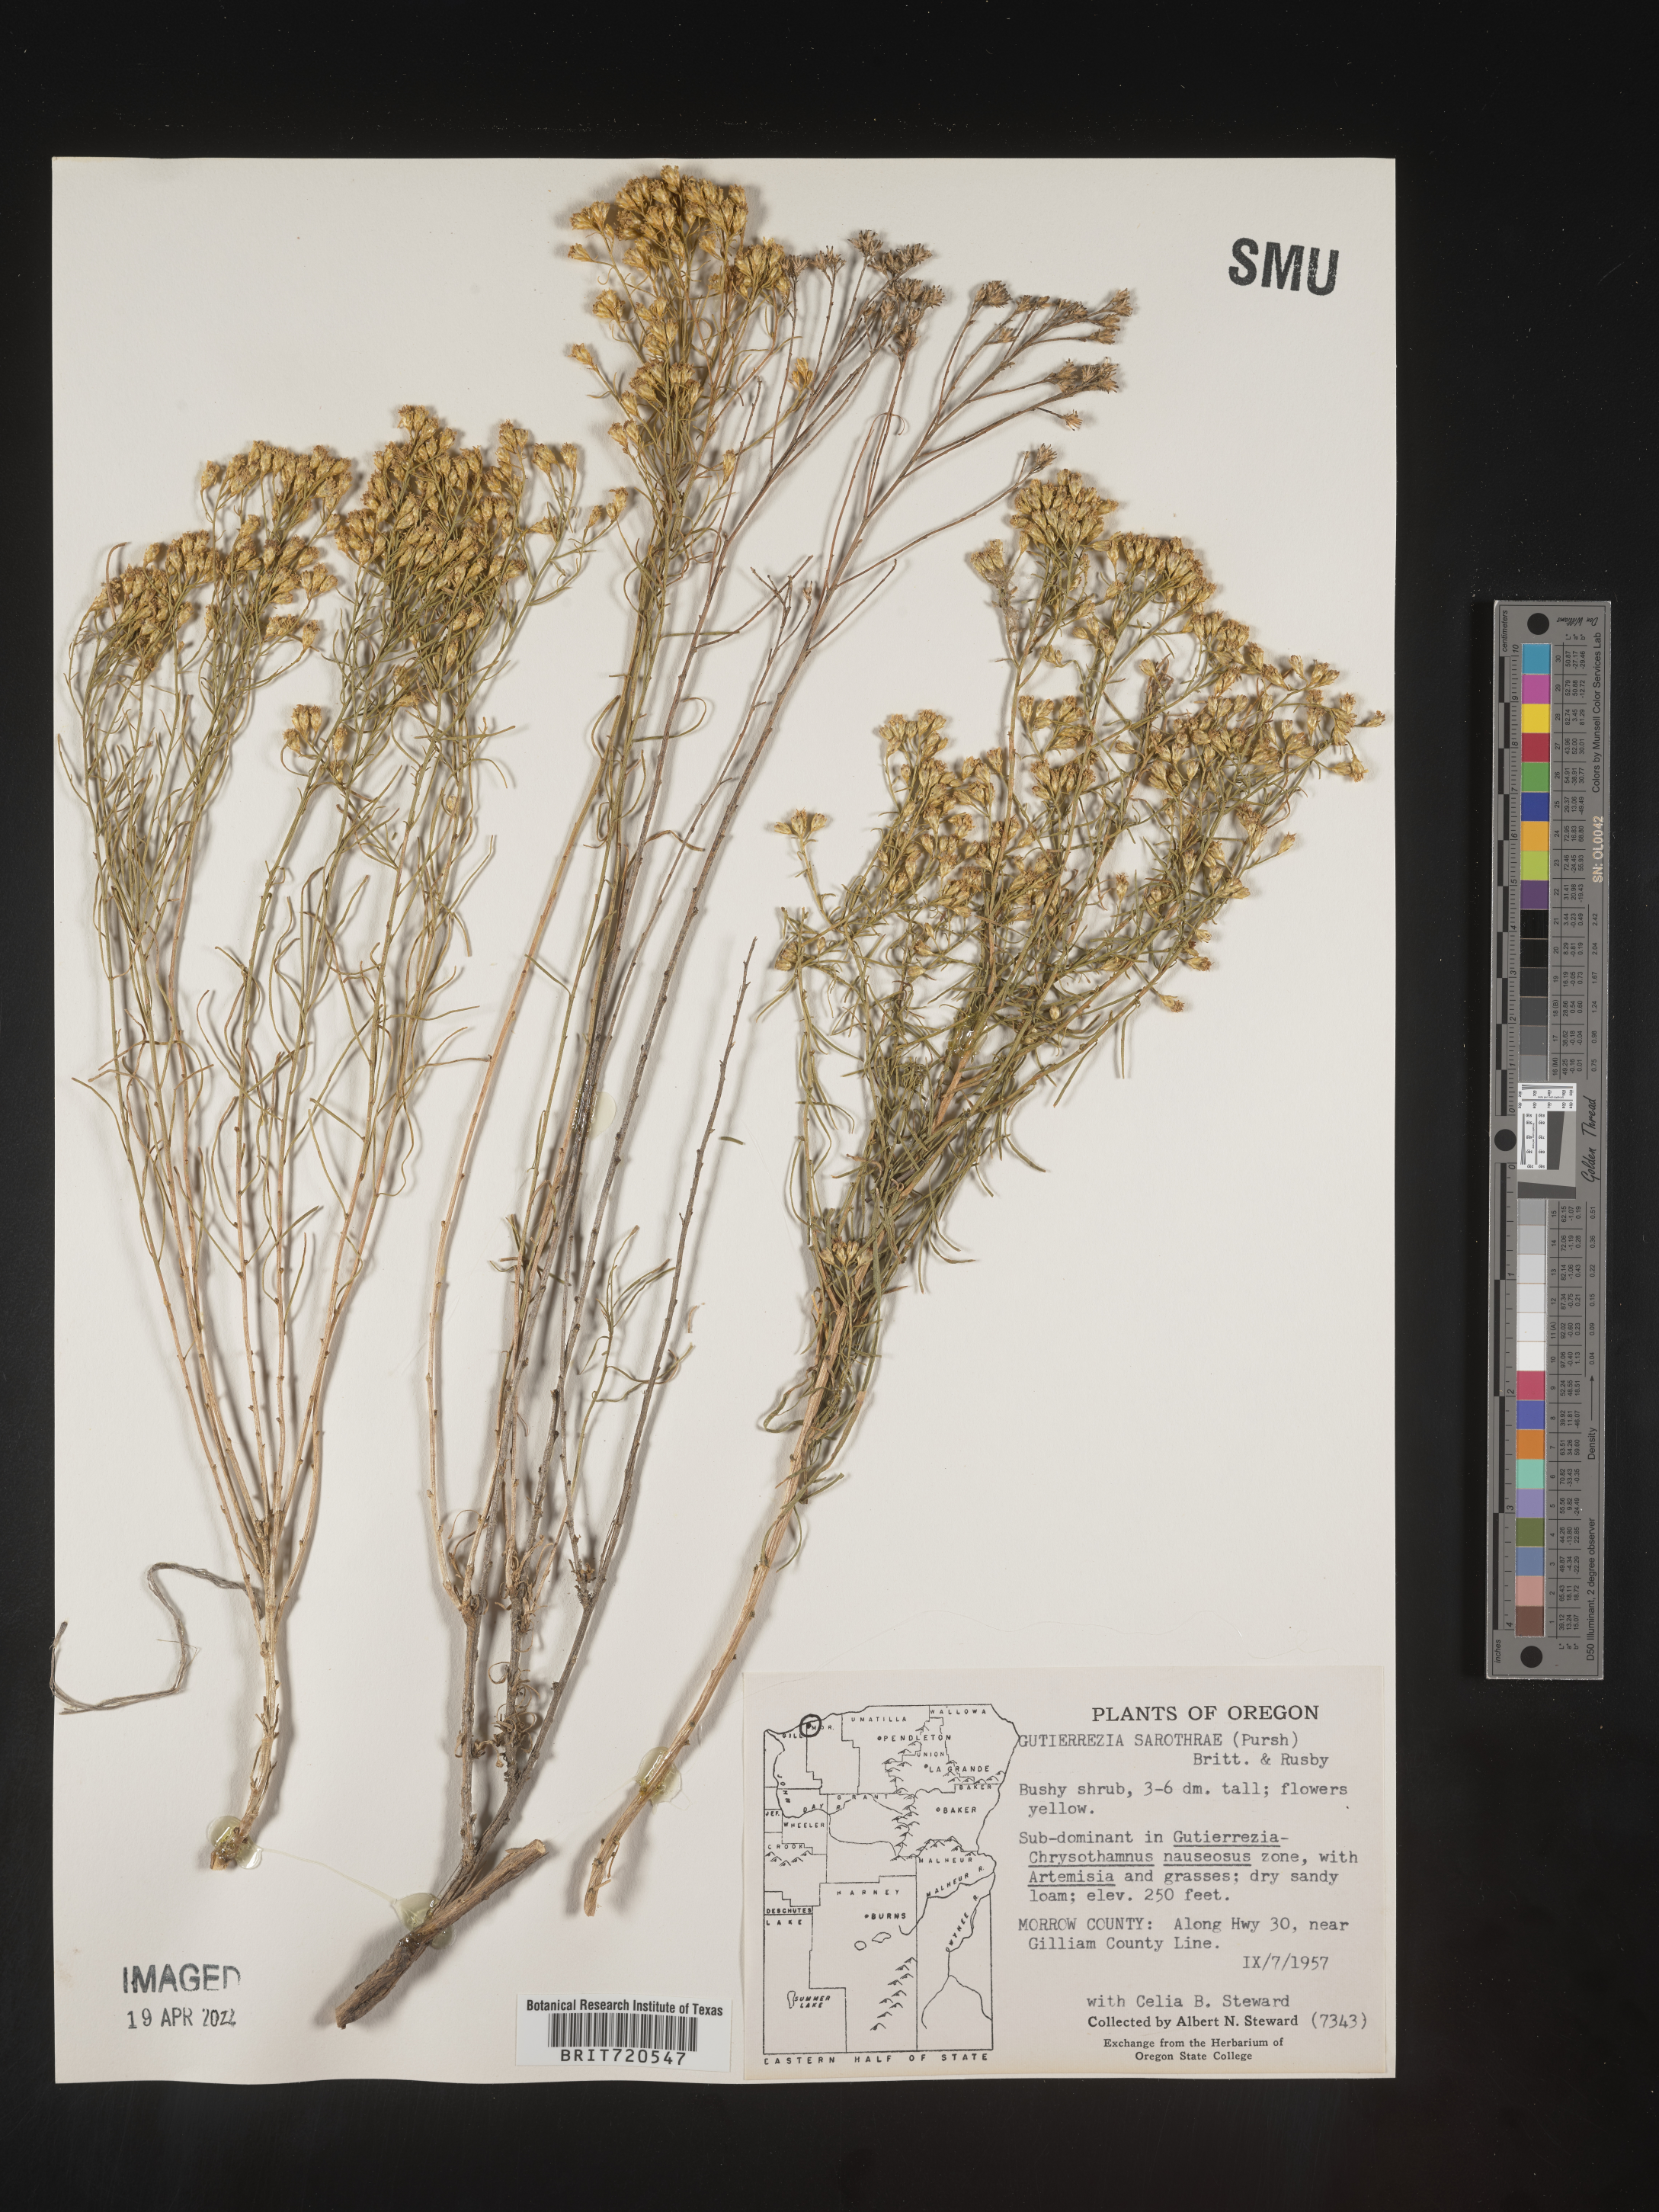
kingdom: Plantae
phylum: Tracheophyta
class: Magnoliopsida
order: Asterales
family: Asteraceae
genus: Gutierrezia
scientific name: Gutierrezia sarothrae
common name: Broom snakeweed
